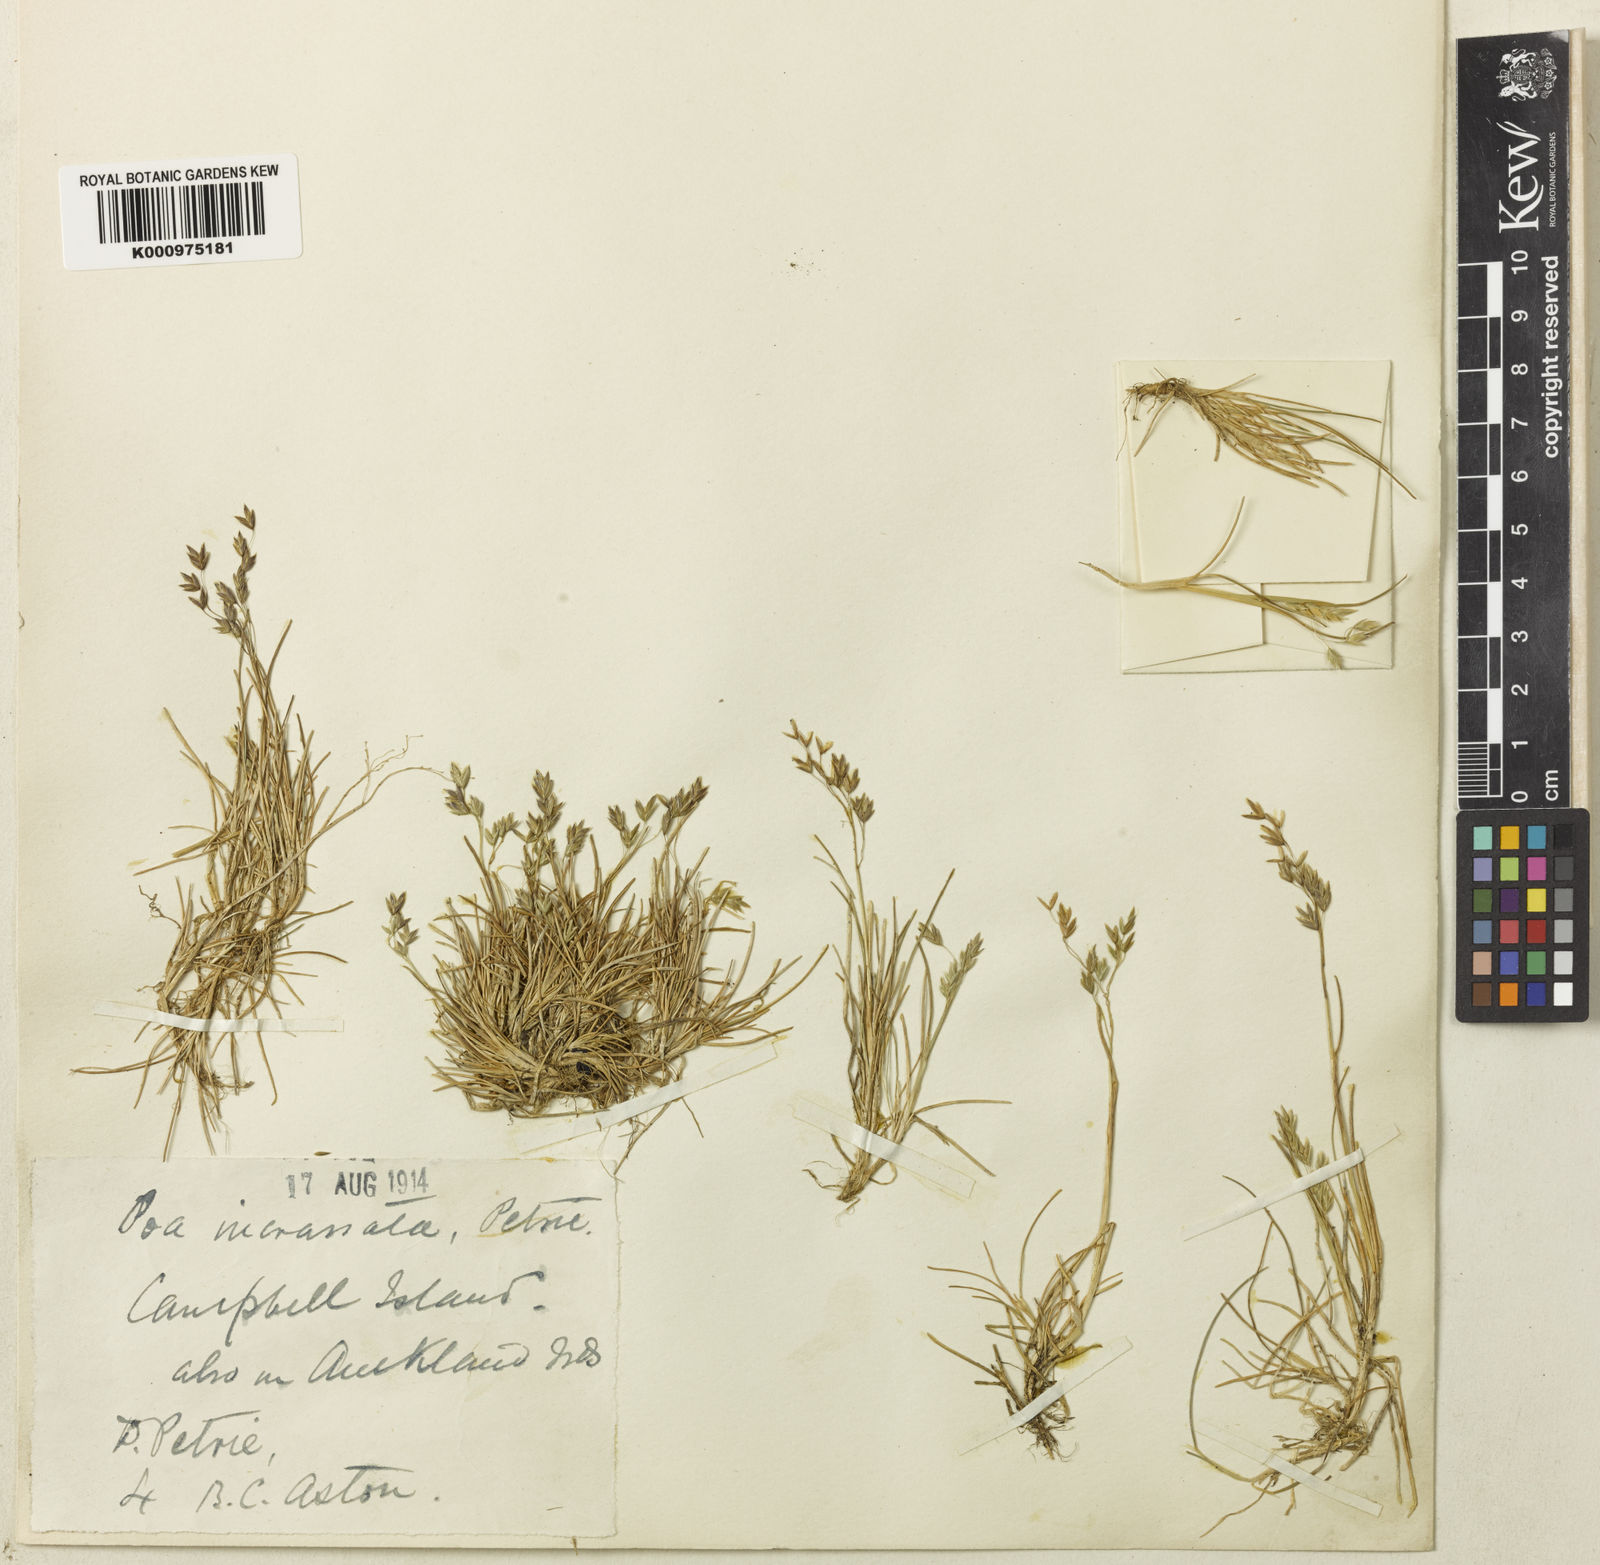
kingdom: Plantae
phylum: Tracheophyta
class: Liliopsida
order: Poales
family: Poaceae
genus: Poa
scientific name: Poa exigua
